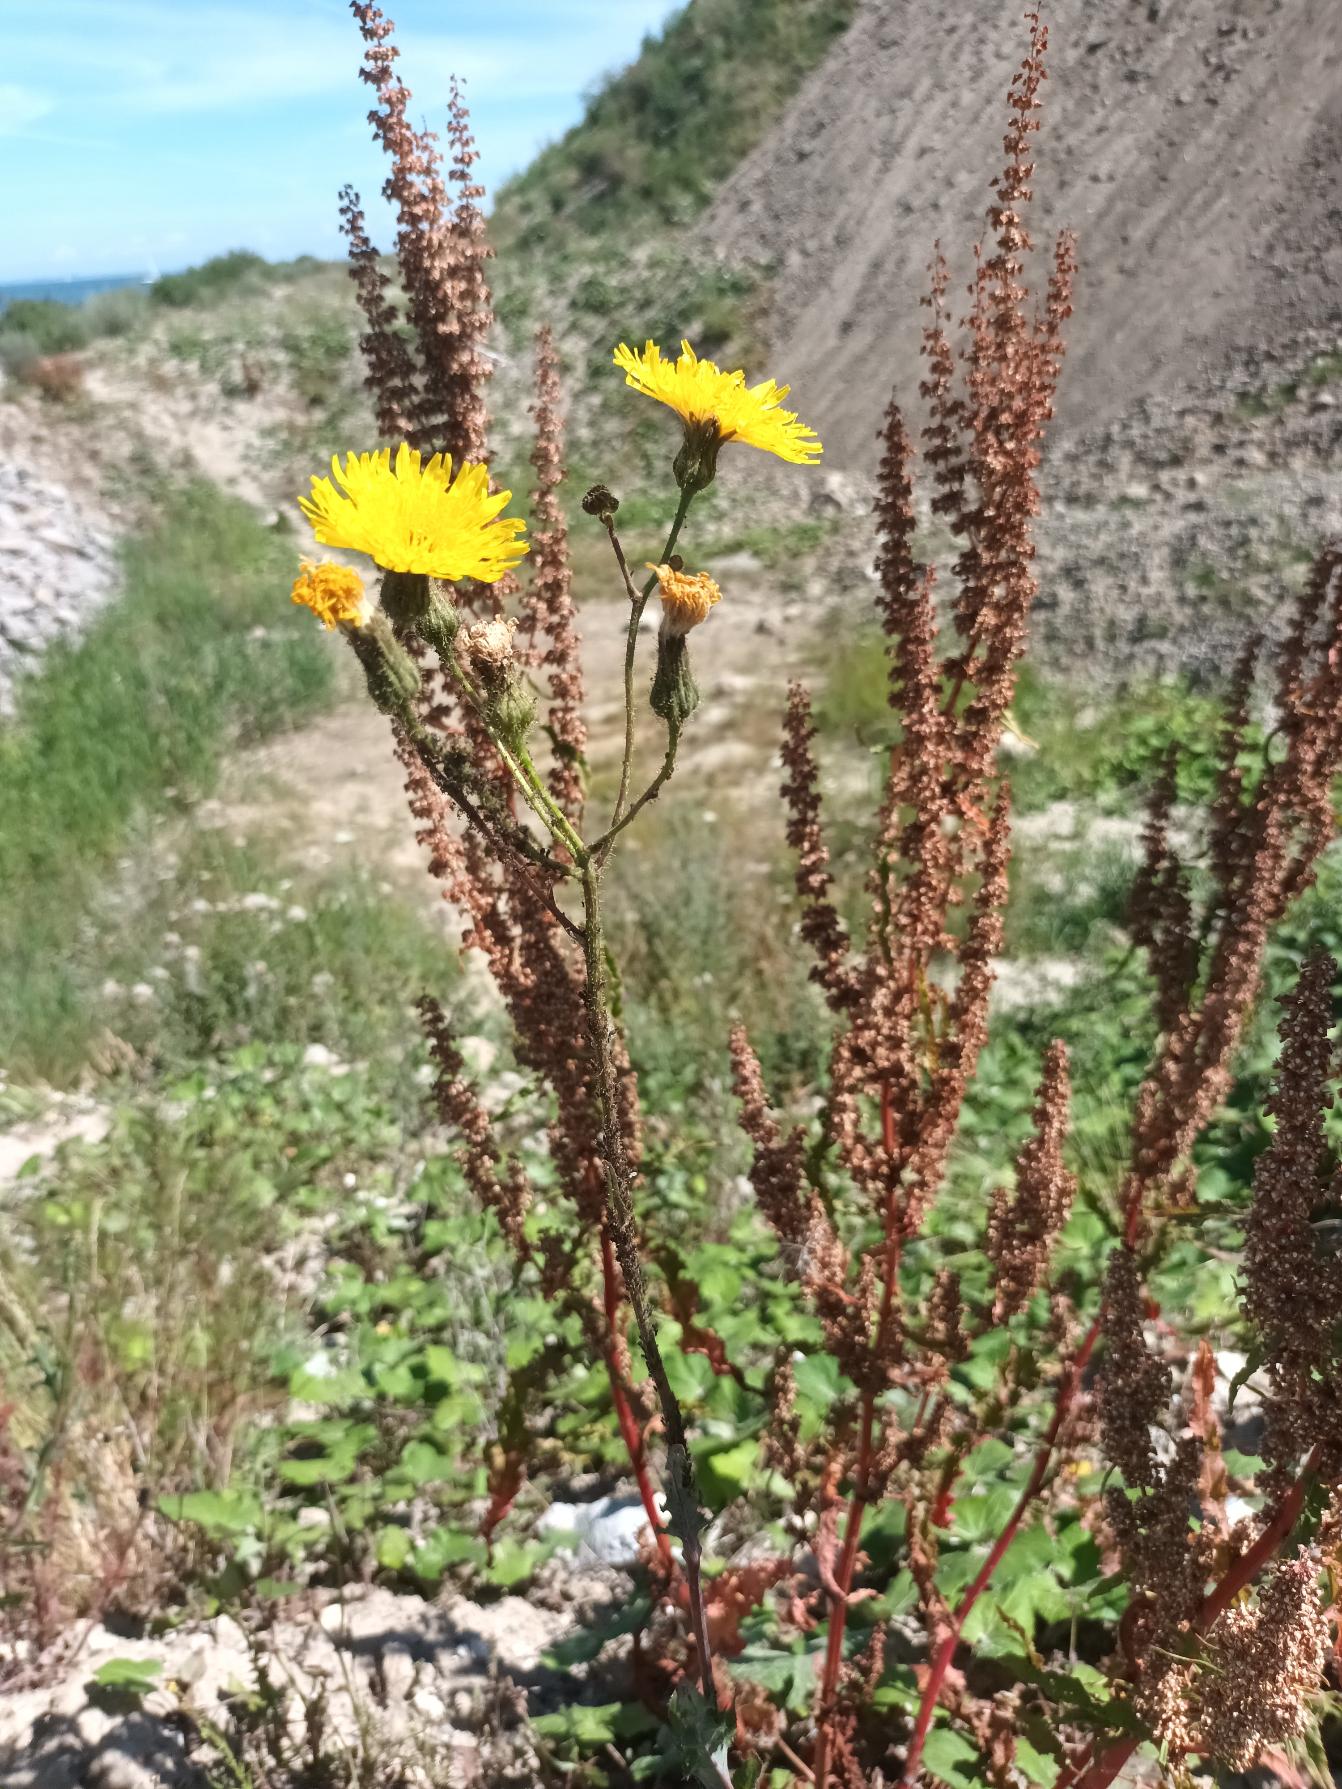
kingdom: Plantae
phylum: Tracheophyta
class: Magnoliopsida
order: Asterales
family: Asteraceae
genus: Sonchus
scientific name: Sonchus arvensis
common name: Ager-svinemælk
